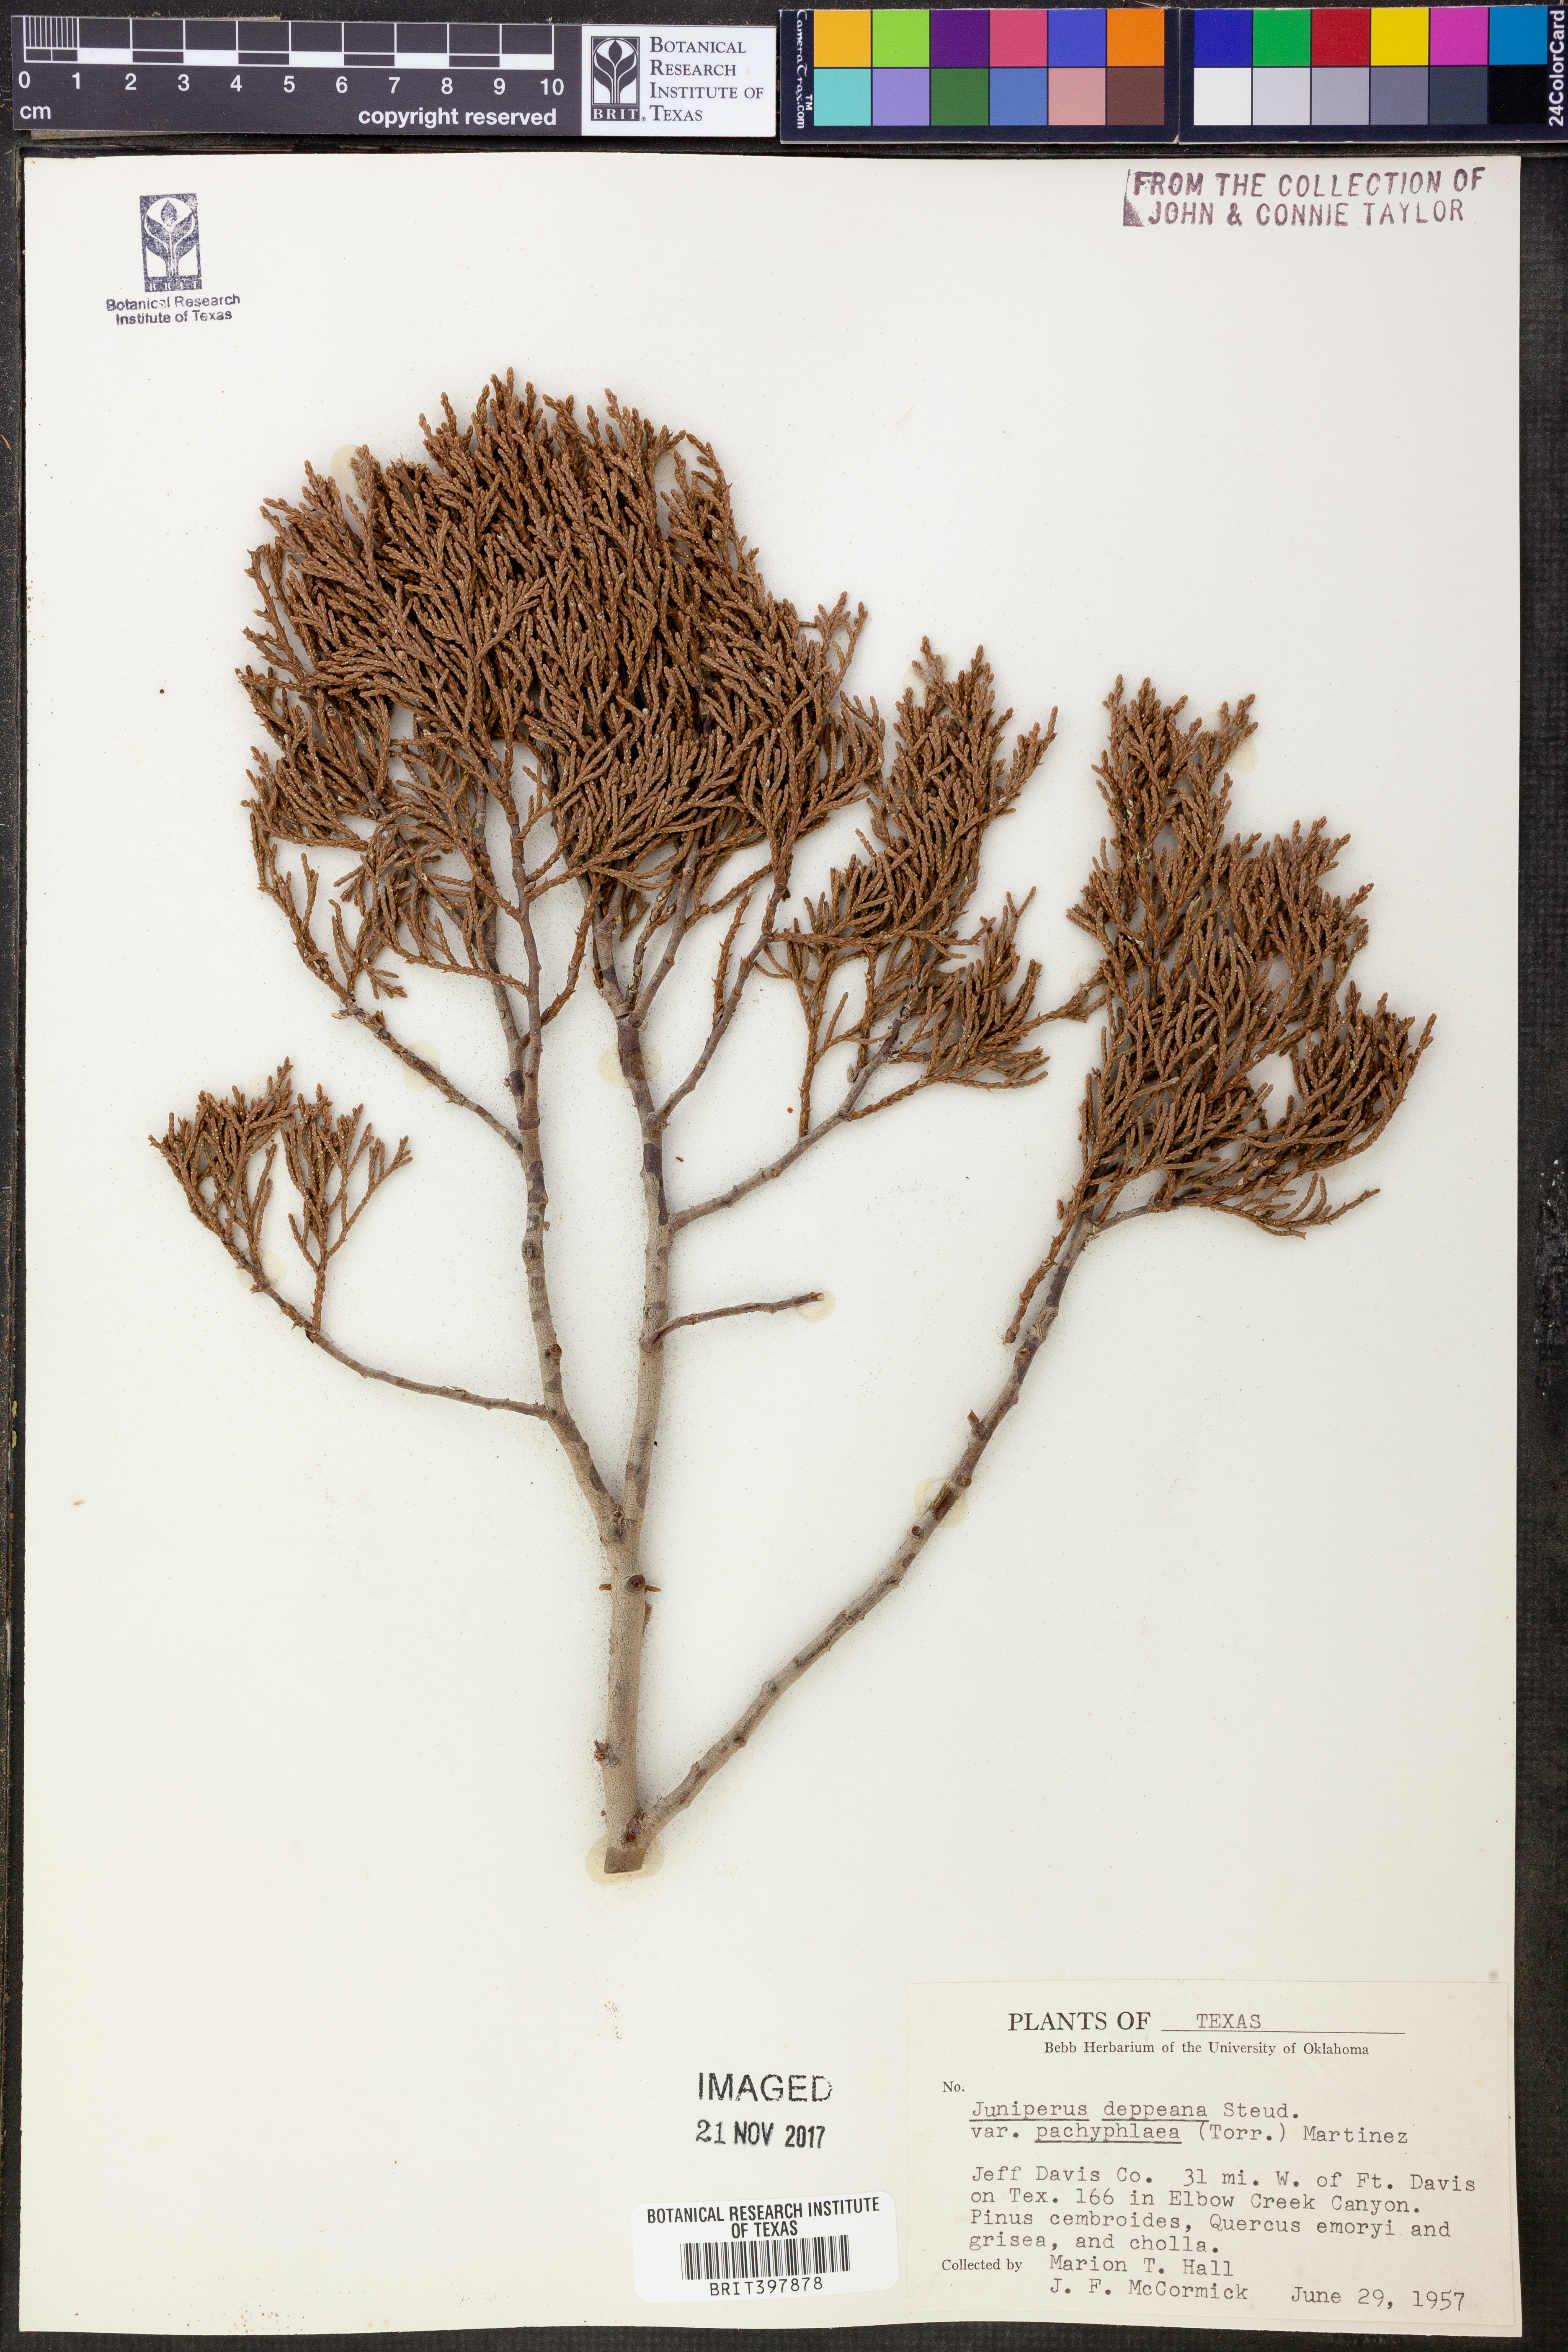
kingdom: Plantae
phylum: Tracheophyta
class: Pinopsida
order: Pinales
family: Cupressaceae
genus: Juniperus
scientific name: Juniperus deppeana
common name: Alligator juniper
